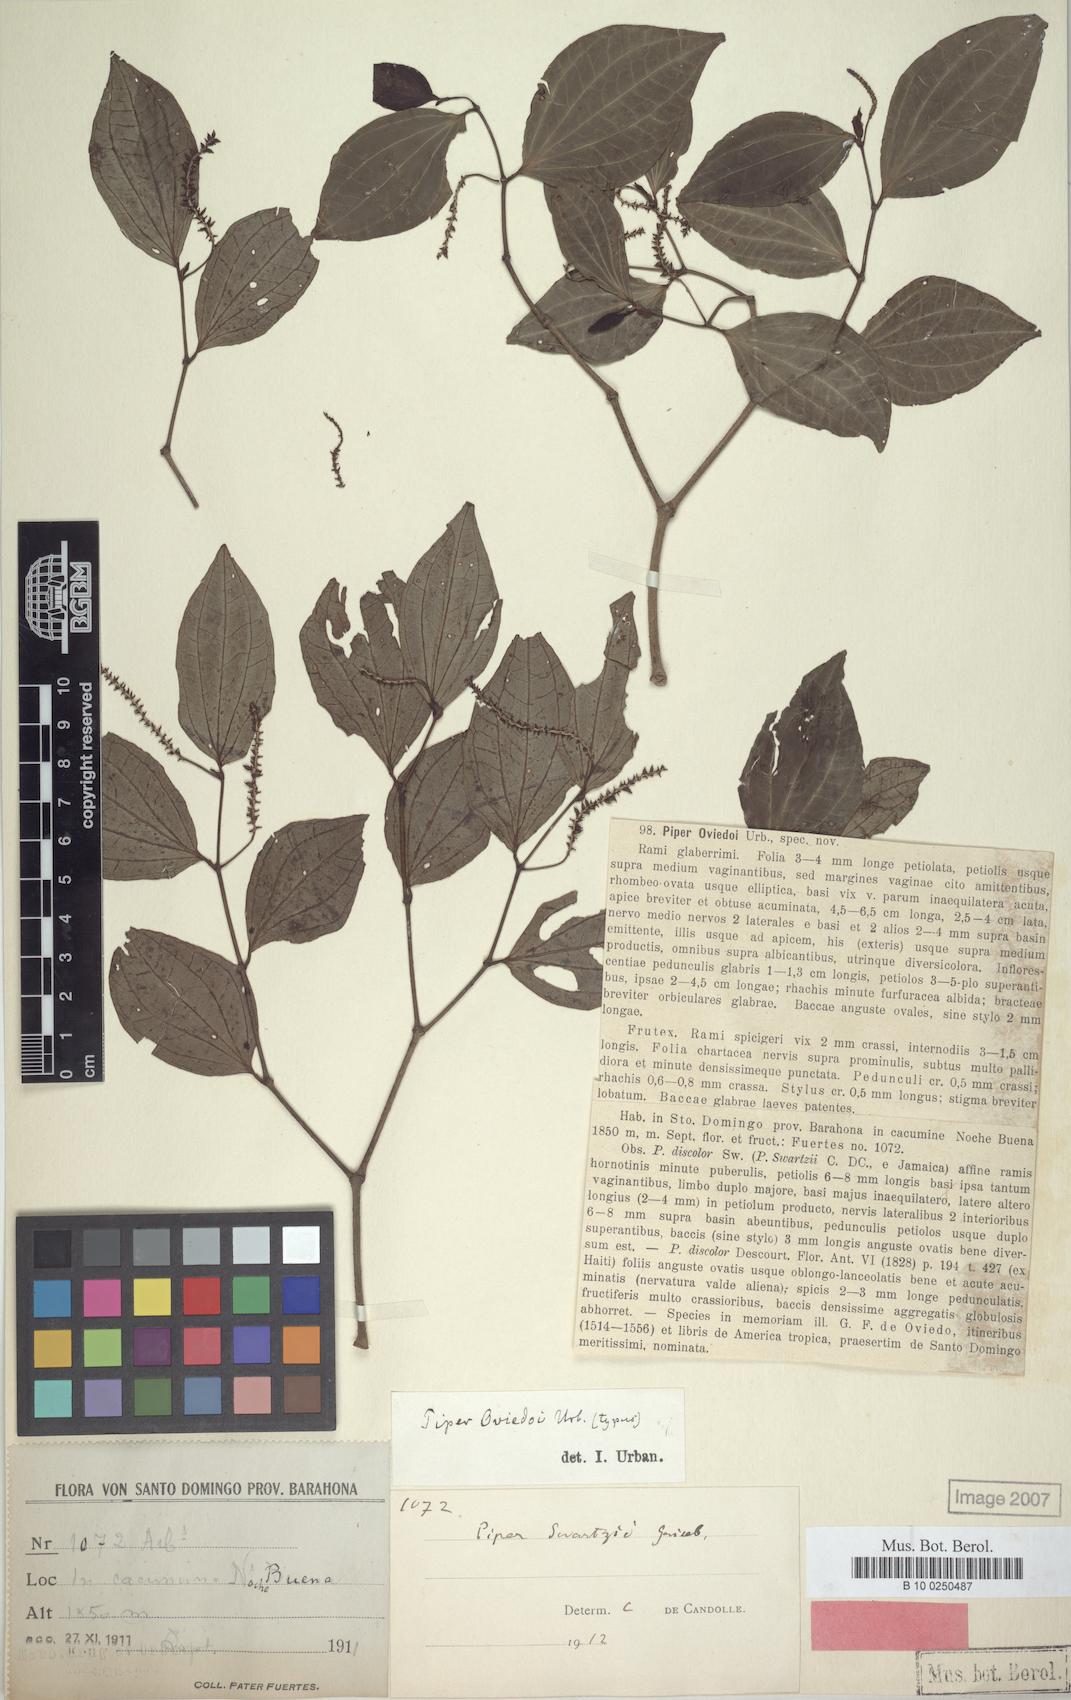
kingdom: Plantae
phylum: Tracheophyta
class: Magnoliopsida
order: Piperales
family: Piperaceae
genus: Piper
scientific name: Piper oviedoi
